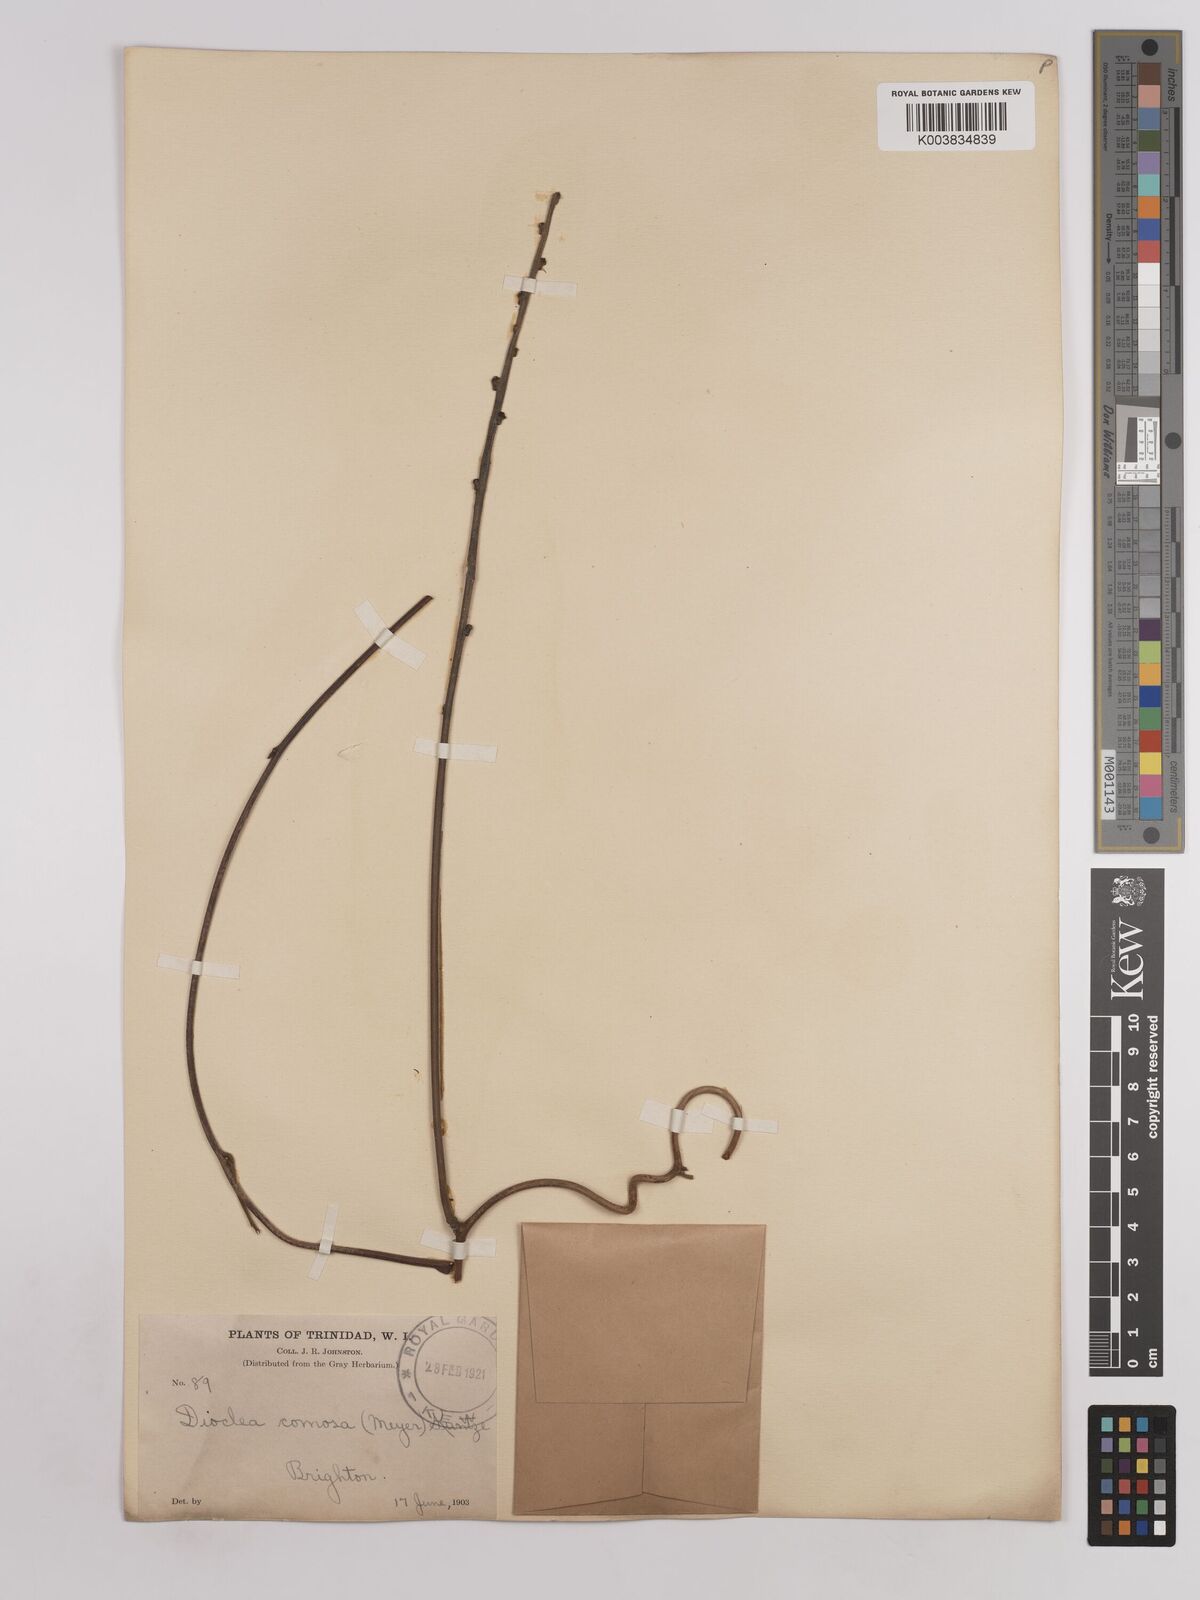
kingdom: Plantae
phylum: Tracheophyta
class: Magnoliopsida
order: Fabales
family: Fabaceae
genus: Dioclea
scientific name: Dioclea guianensis
